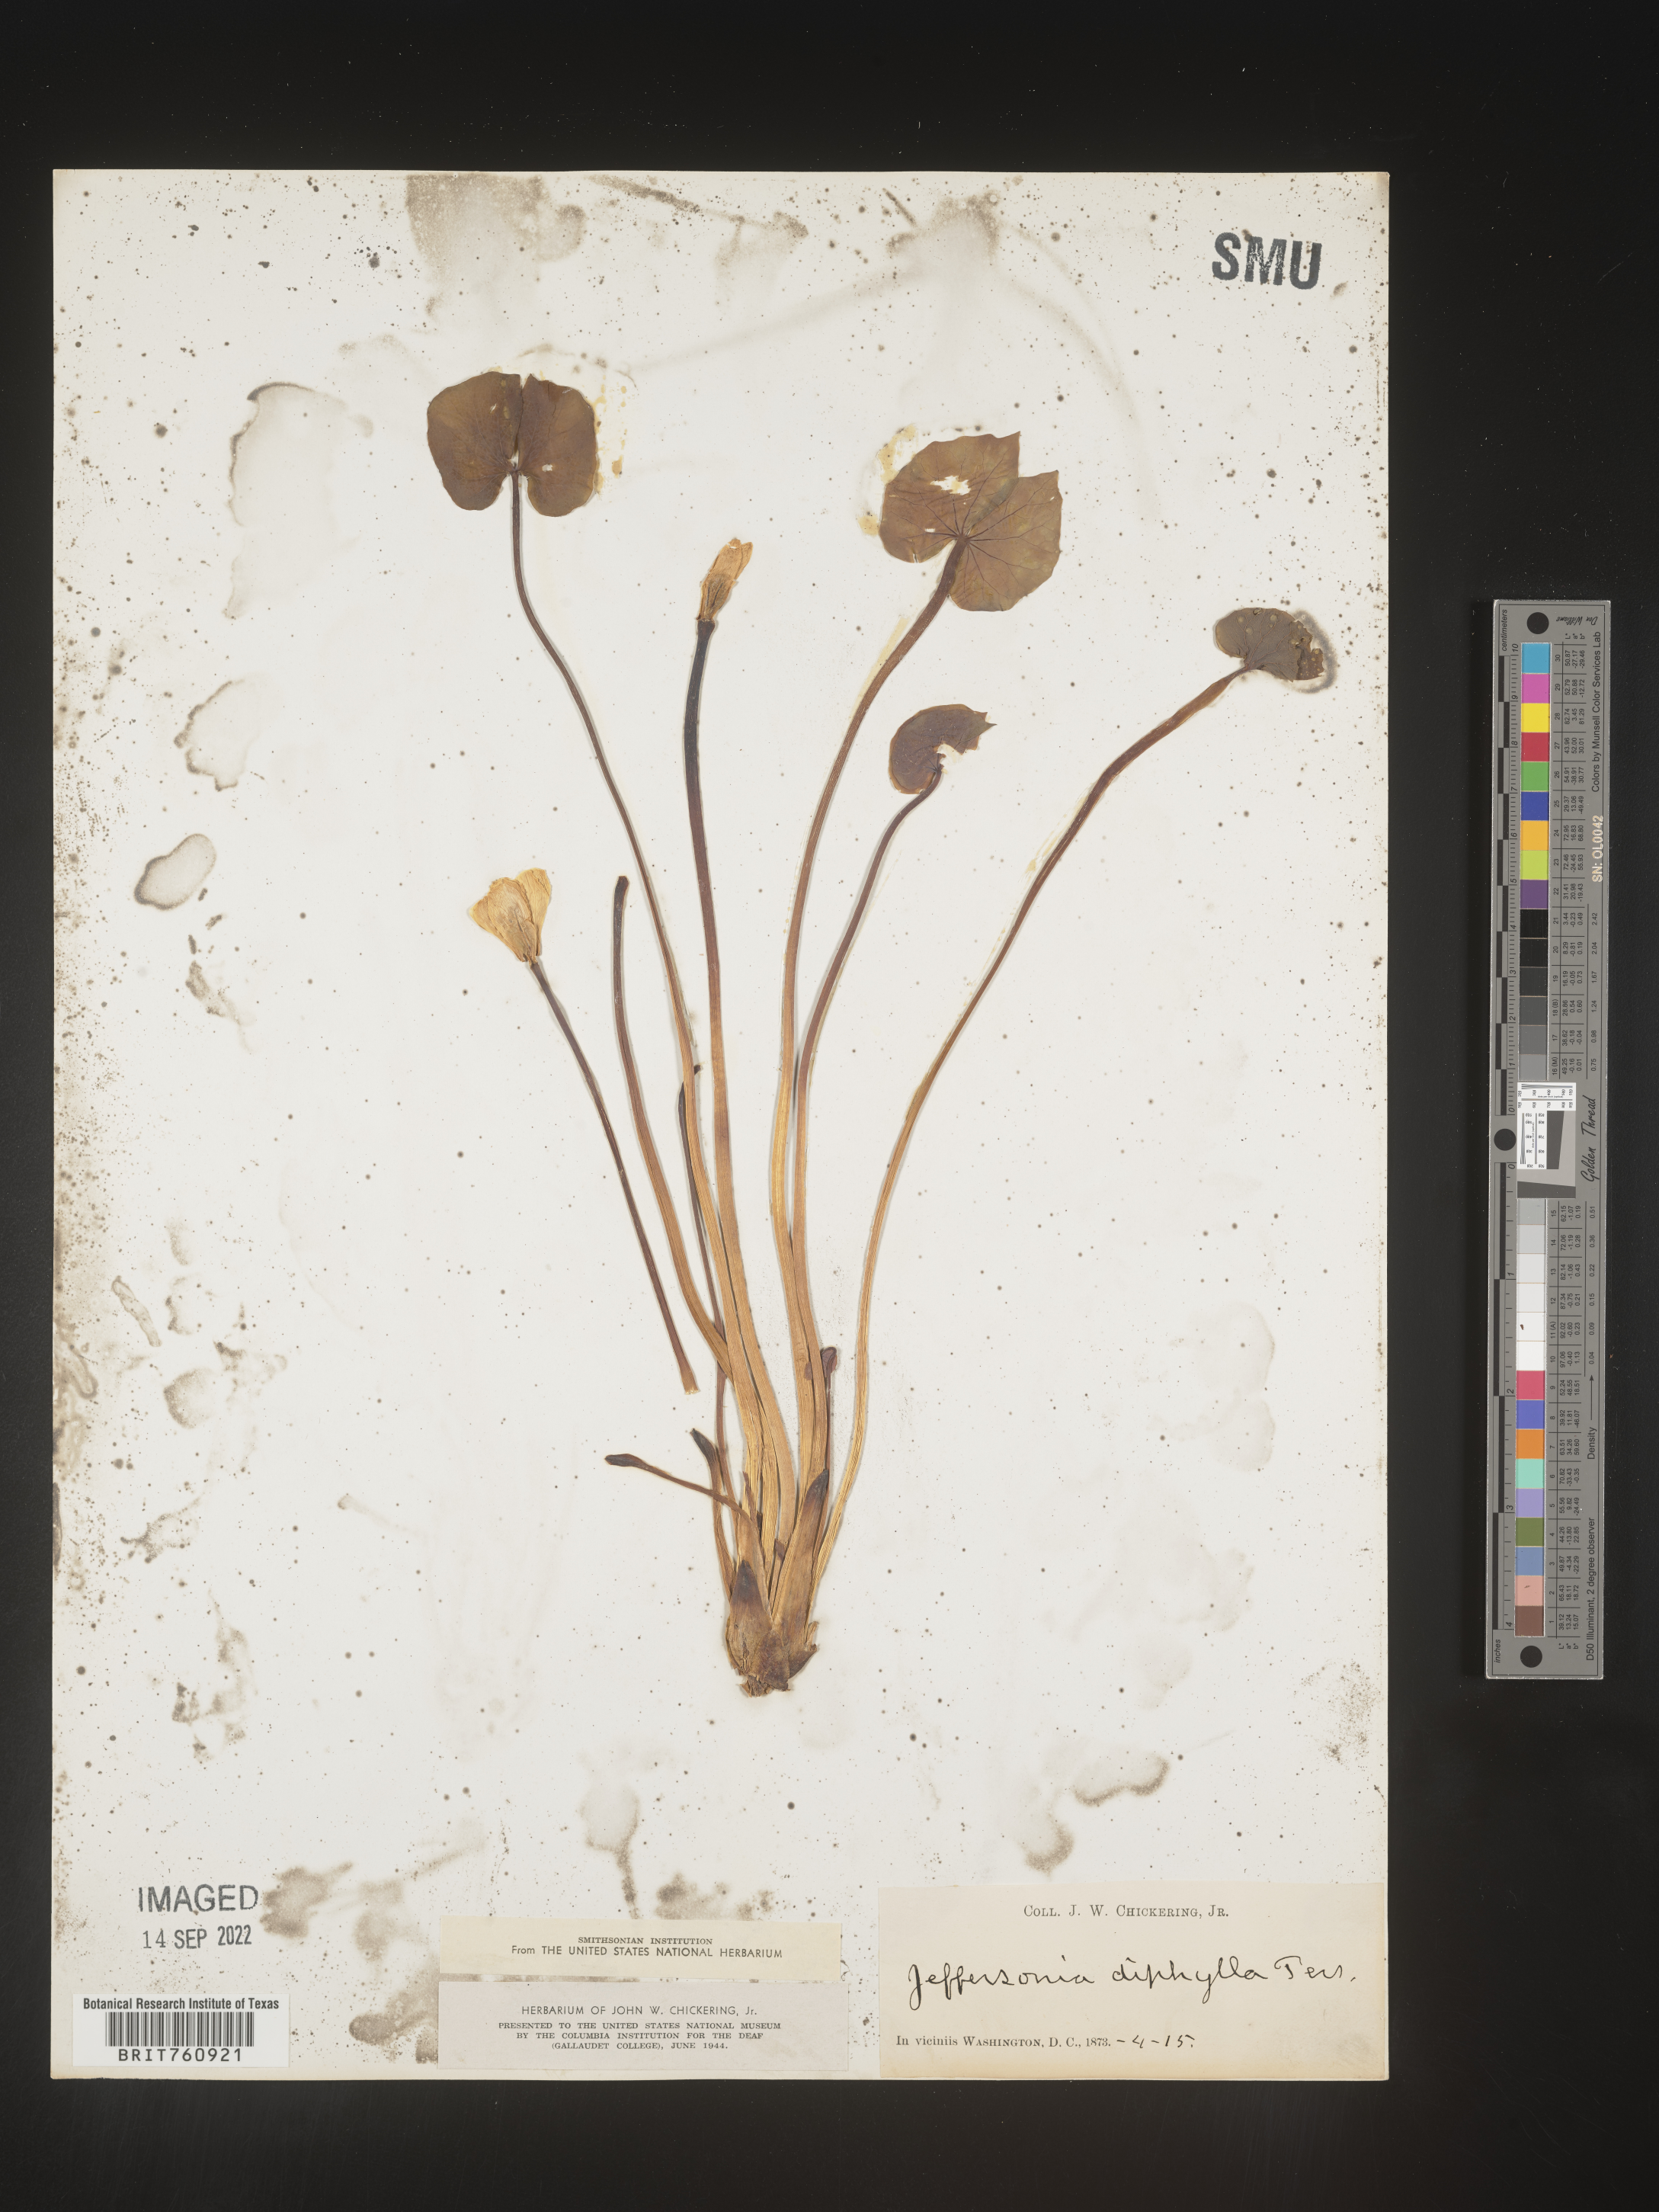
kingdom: Plantae
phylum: Tracheophyta
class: Magnoliopsida
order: Ranunculales
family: Berberidaceae
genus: Jeffersonia
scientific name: Jeffersonia
